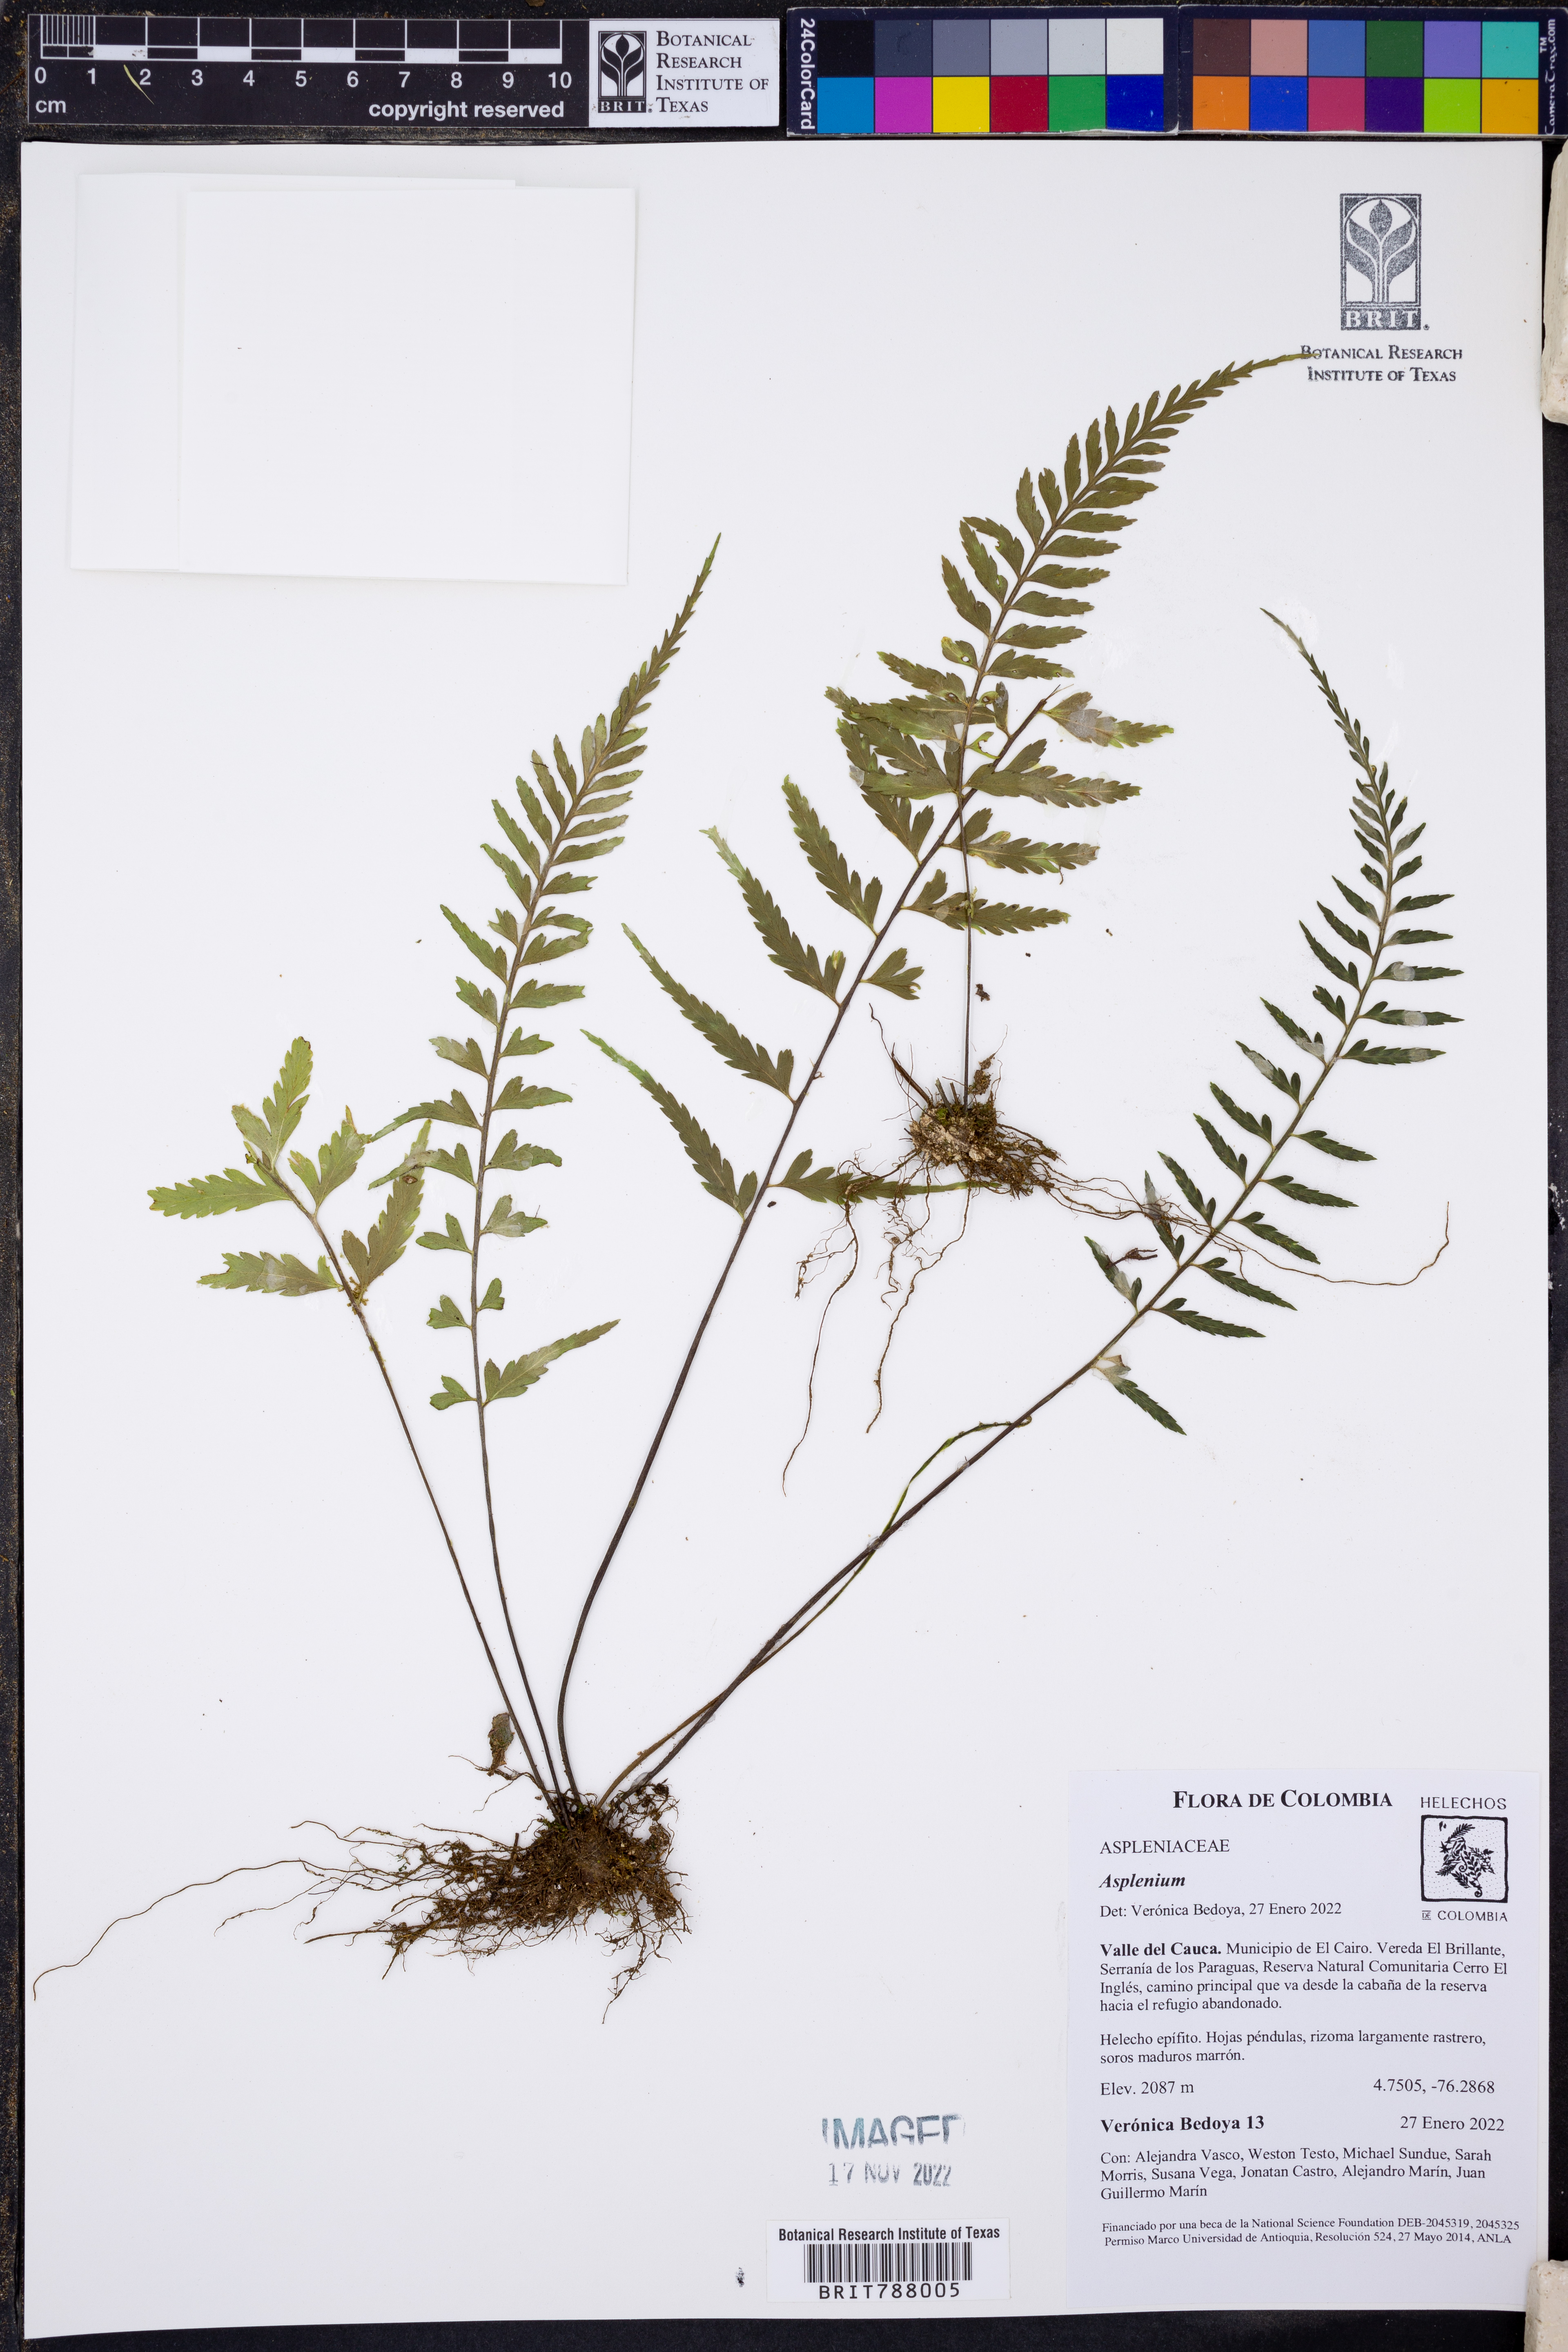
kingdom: Plantae
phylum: Tracheophyta
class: Polypodiopsida
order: Polypodiales
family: Aspleniaceae
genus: Asplenium
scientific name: Asplenium
